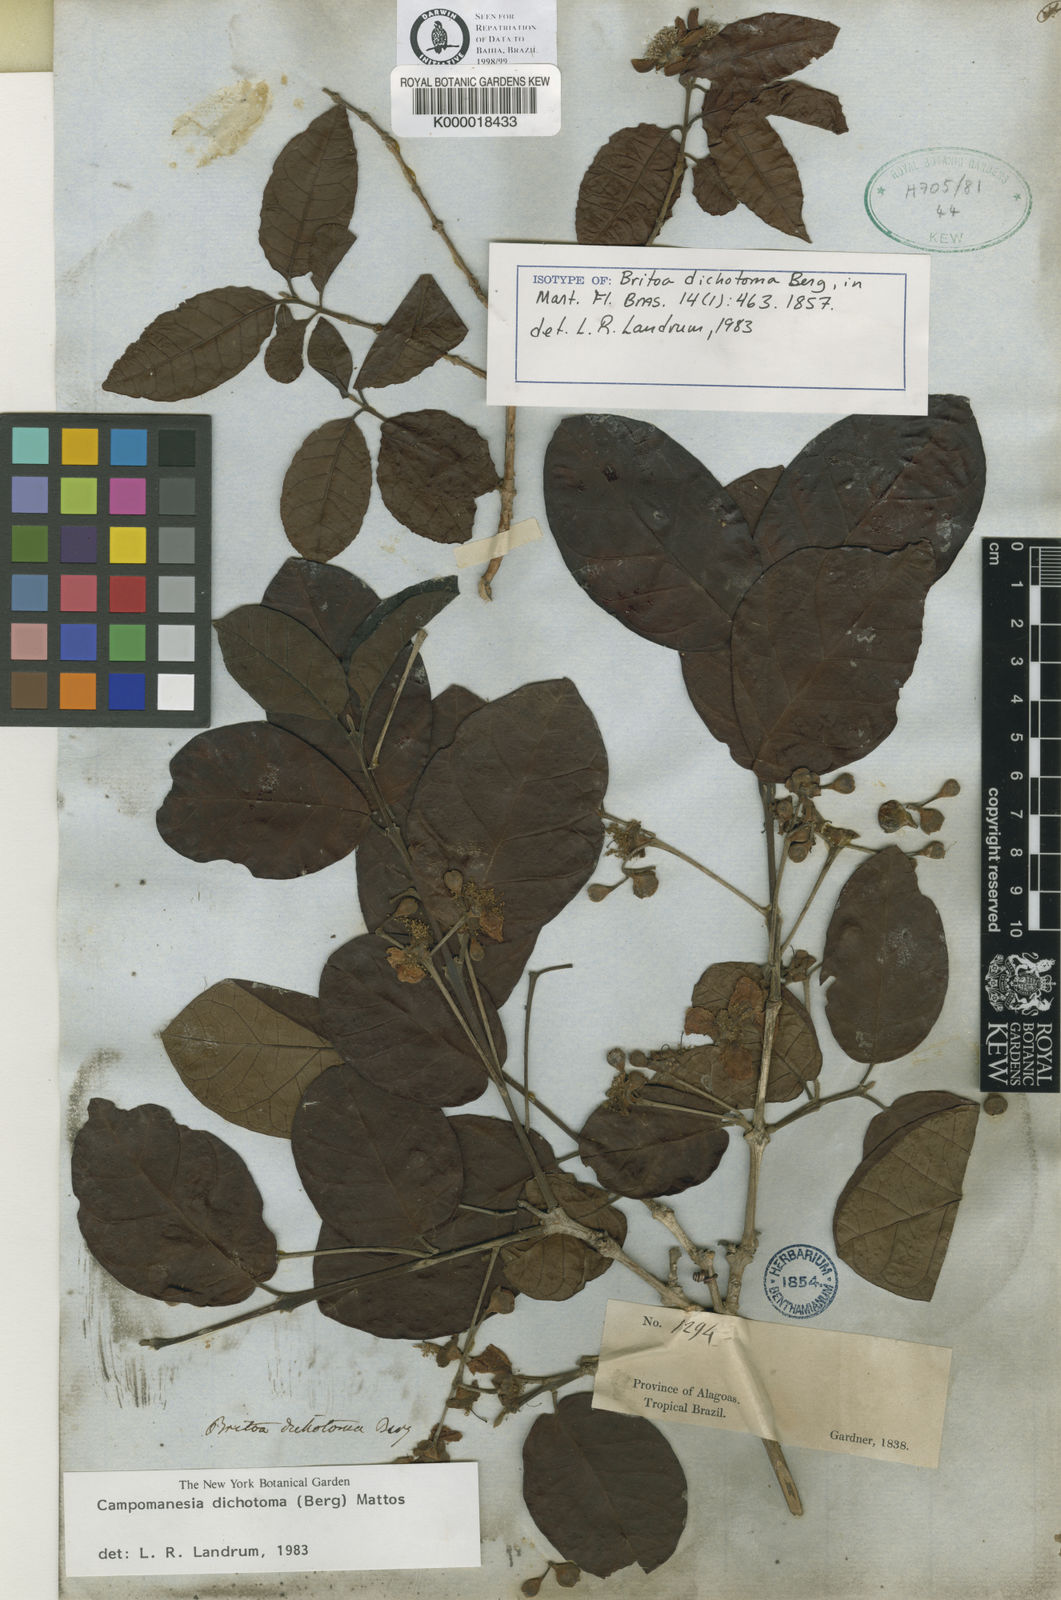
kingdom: Plantae
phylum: Tracheophyta
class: Magnoliopsida
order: Myrtales
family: Myrtaceae
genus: Campomanesia
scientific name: Campomanesia dichotoma
